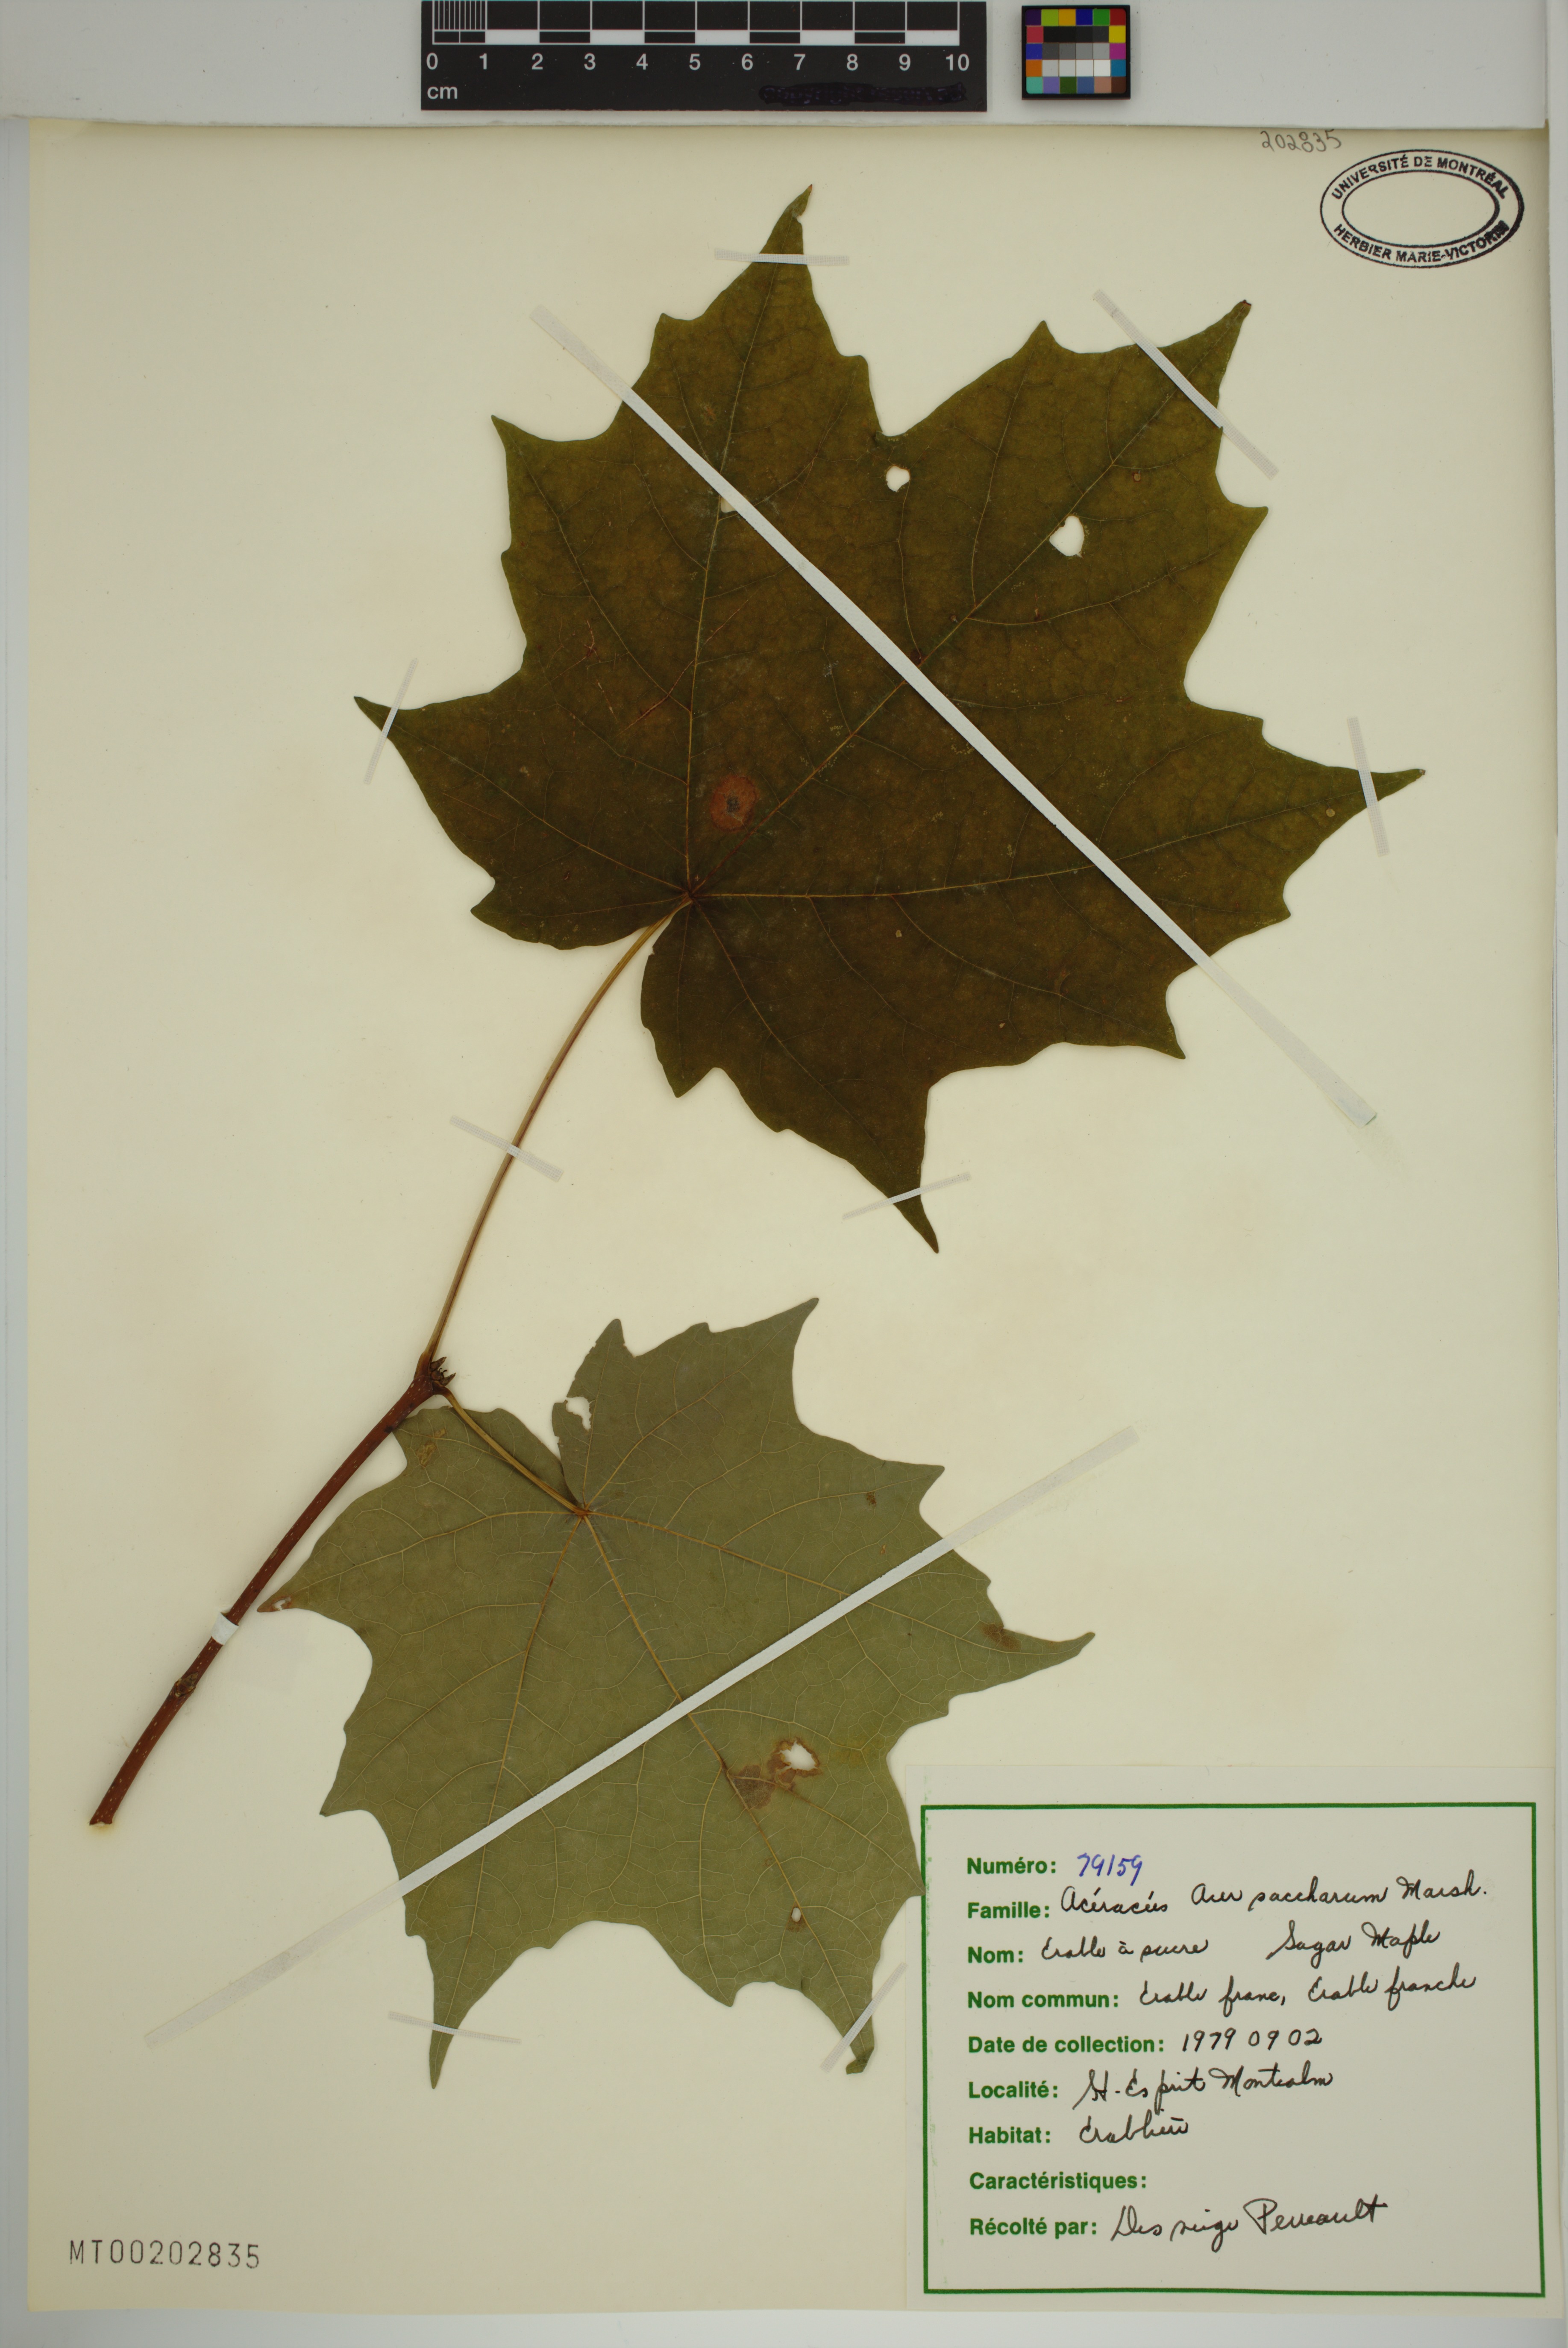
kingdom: Plantae
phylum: Tracheophyta
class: Magnoliopsida
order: Sapindales
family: Sapindaceae
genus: Acer
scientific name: Acer saccharum
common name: Sugar maple
